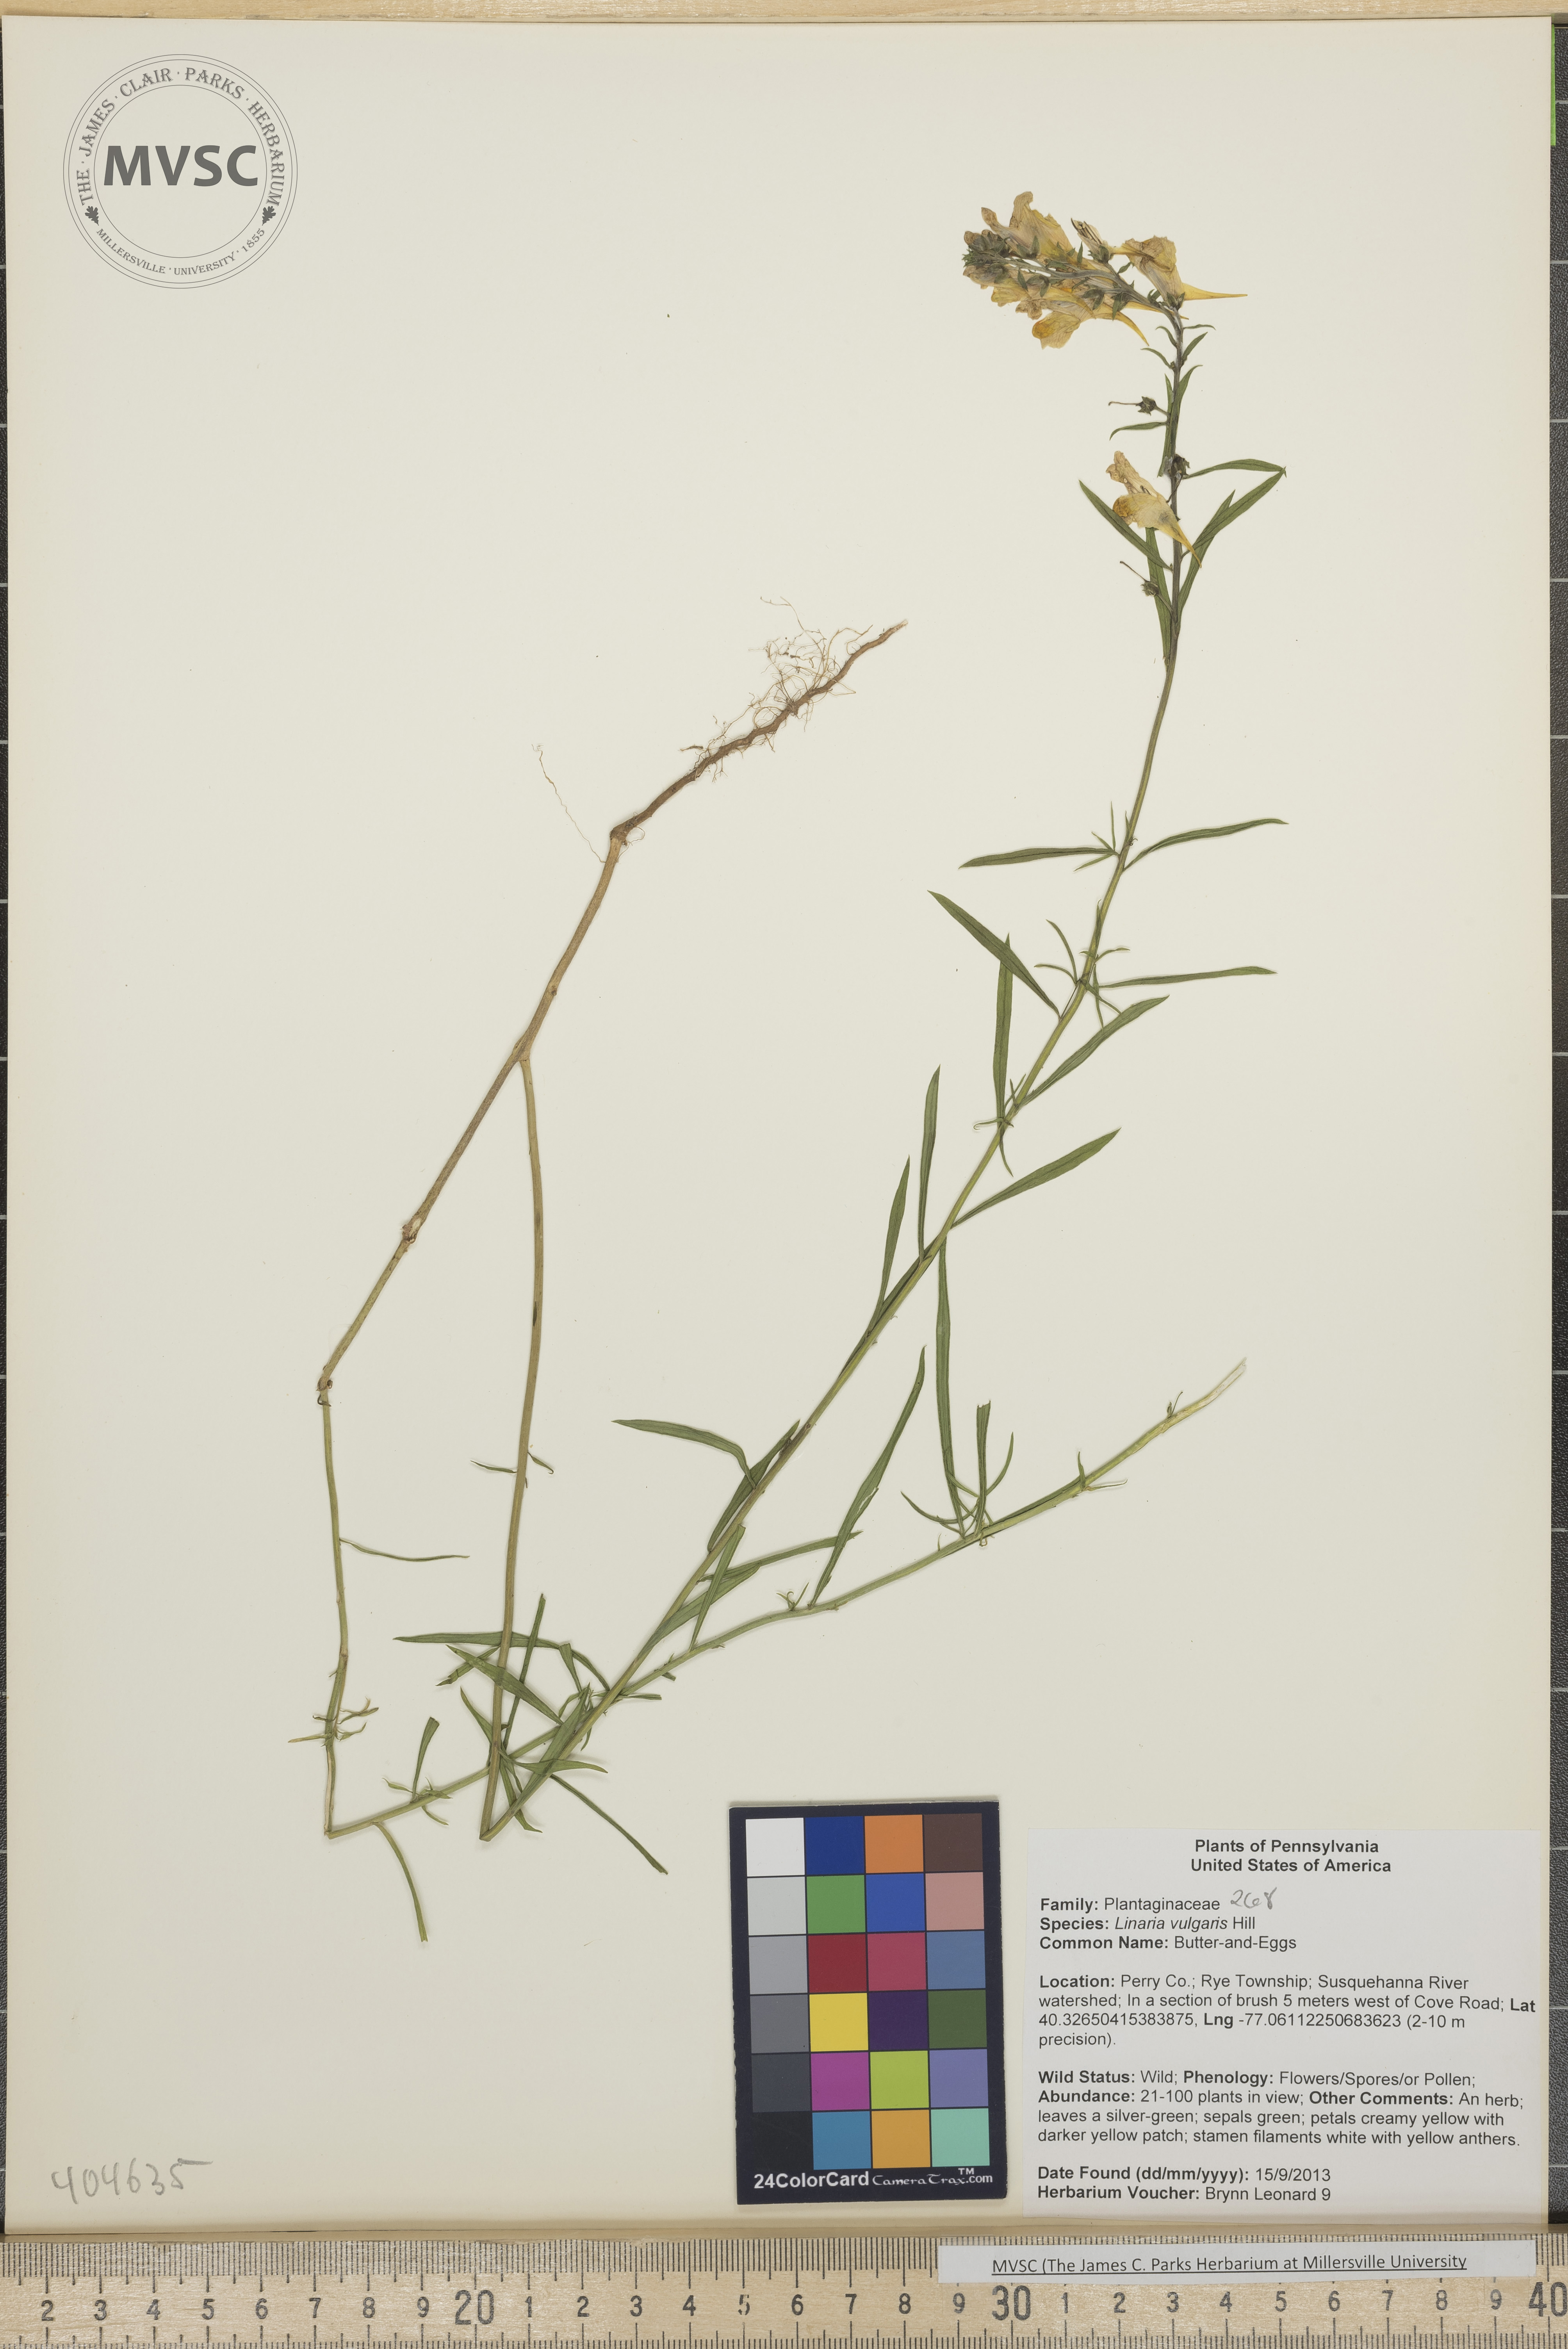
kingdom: Plantae
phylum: Tracheophyta
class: Magnoliopsida
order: Lamiales
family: Plantaginaceae
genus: Linaria
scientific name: Linaria vulgaris
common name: Butter-and-Eggs
